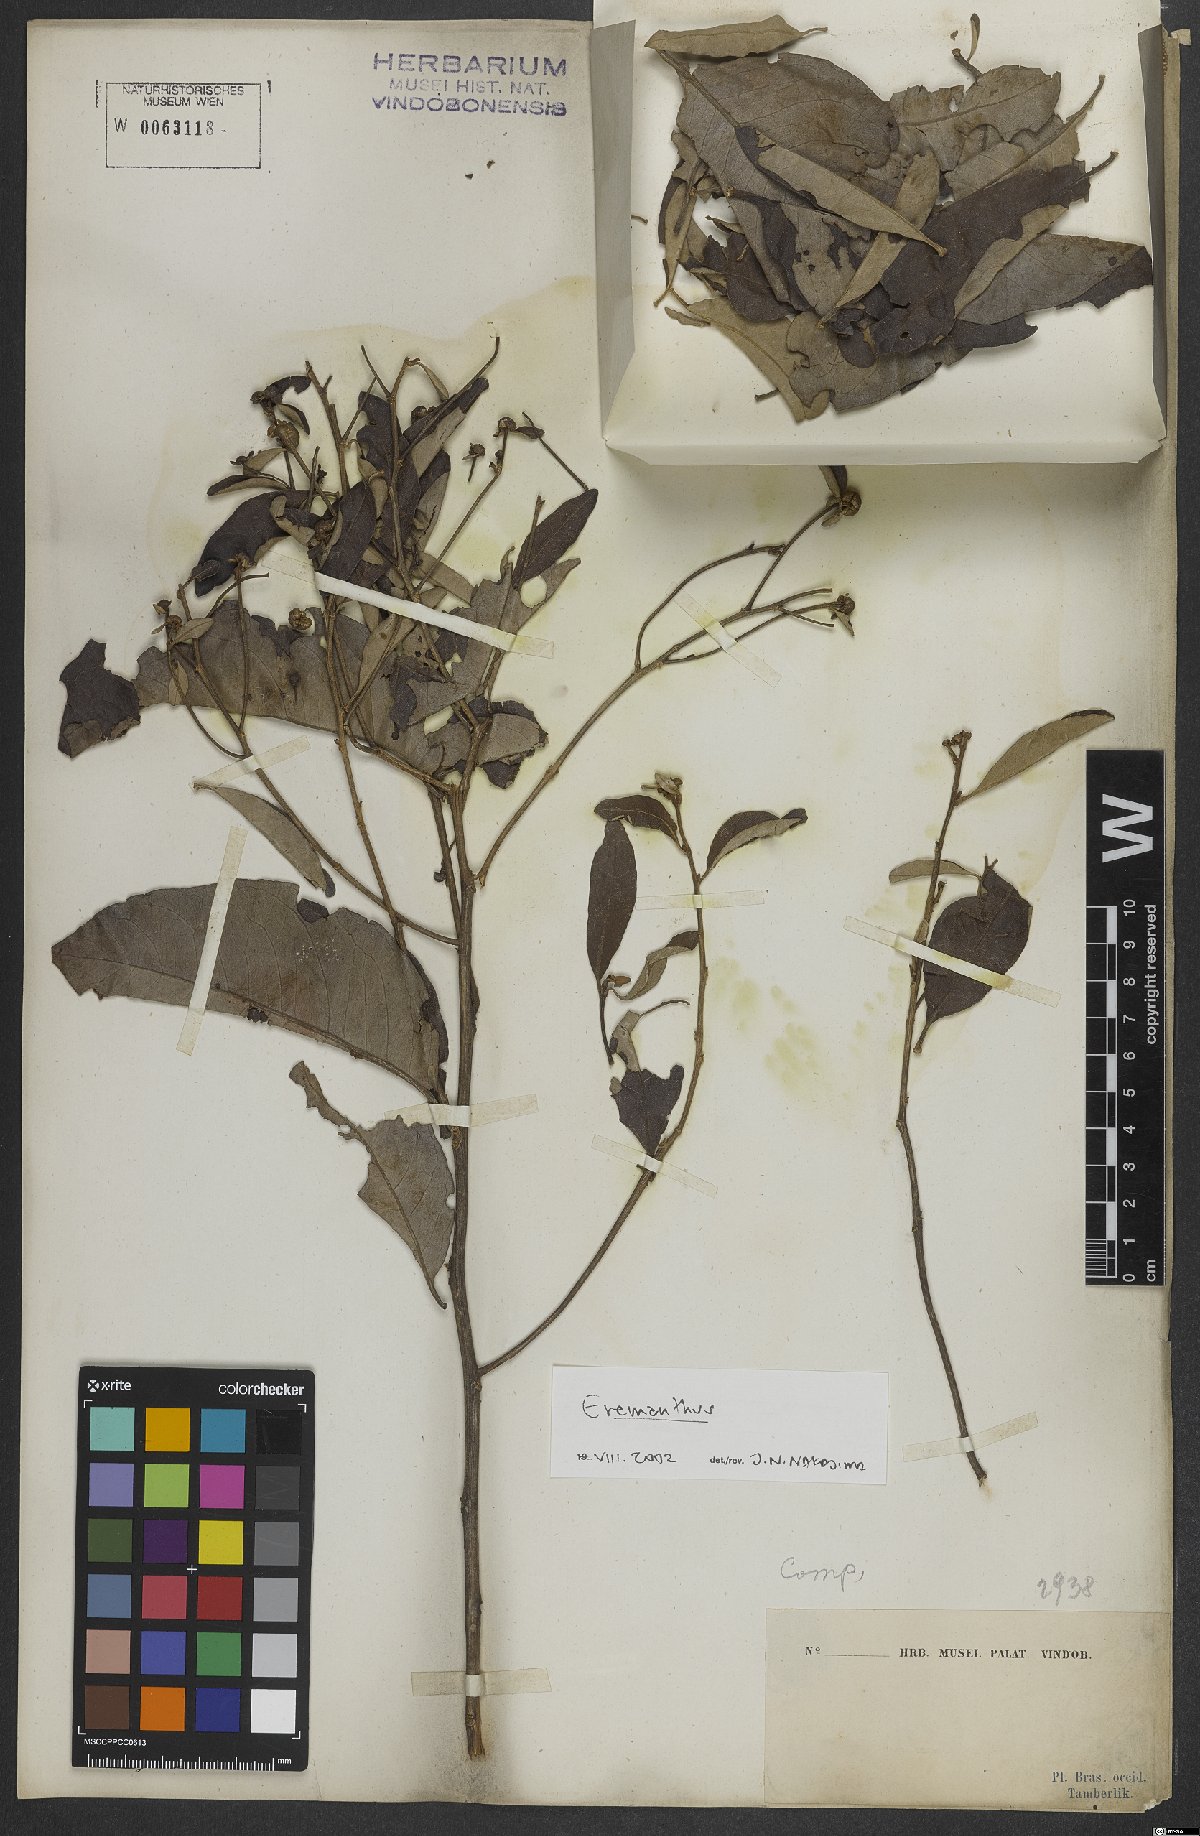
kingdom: Plantae
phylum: Tracheophyta
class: Magnoliopsida
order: Asterales
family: Asteraceae
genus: Eremanthus
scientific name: Eremanthus
